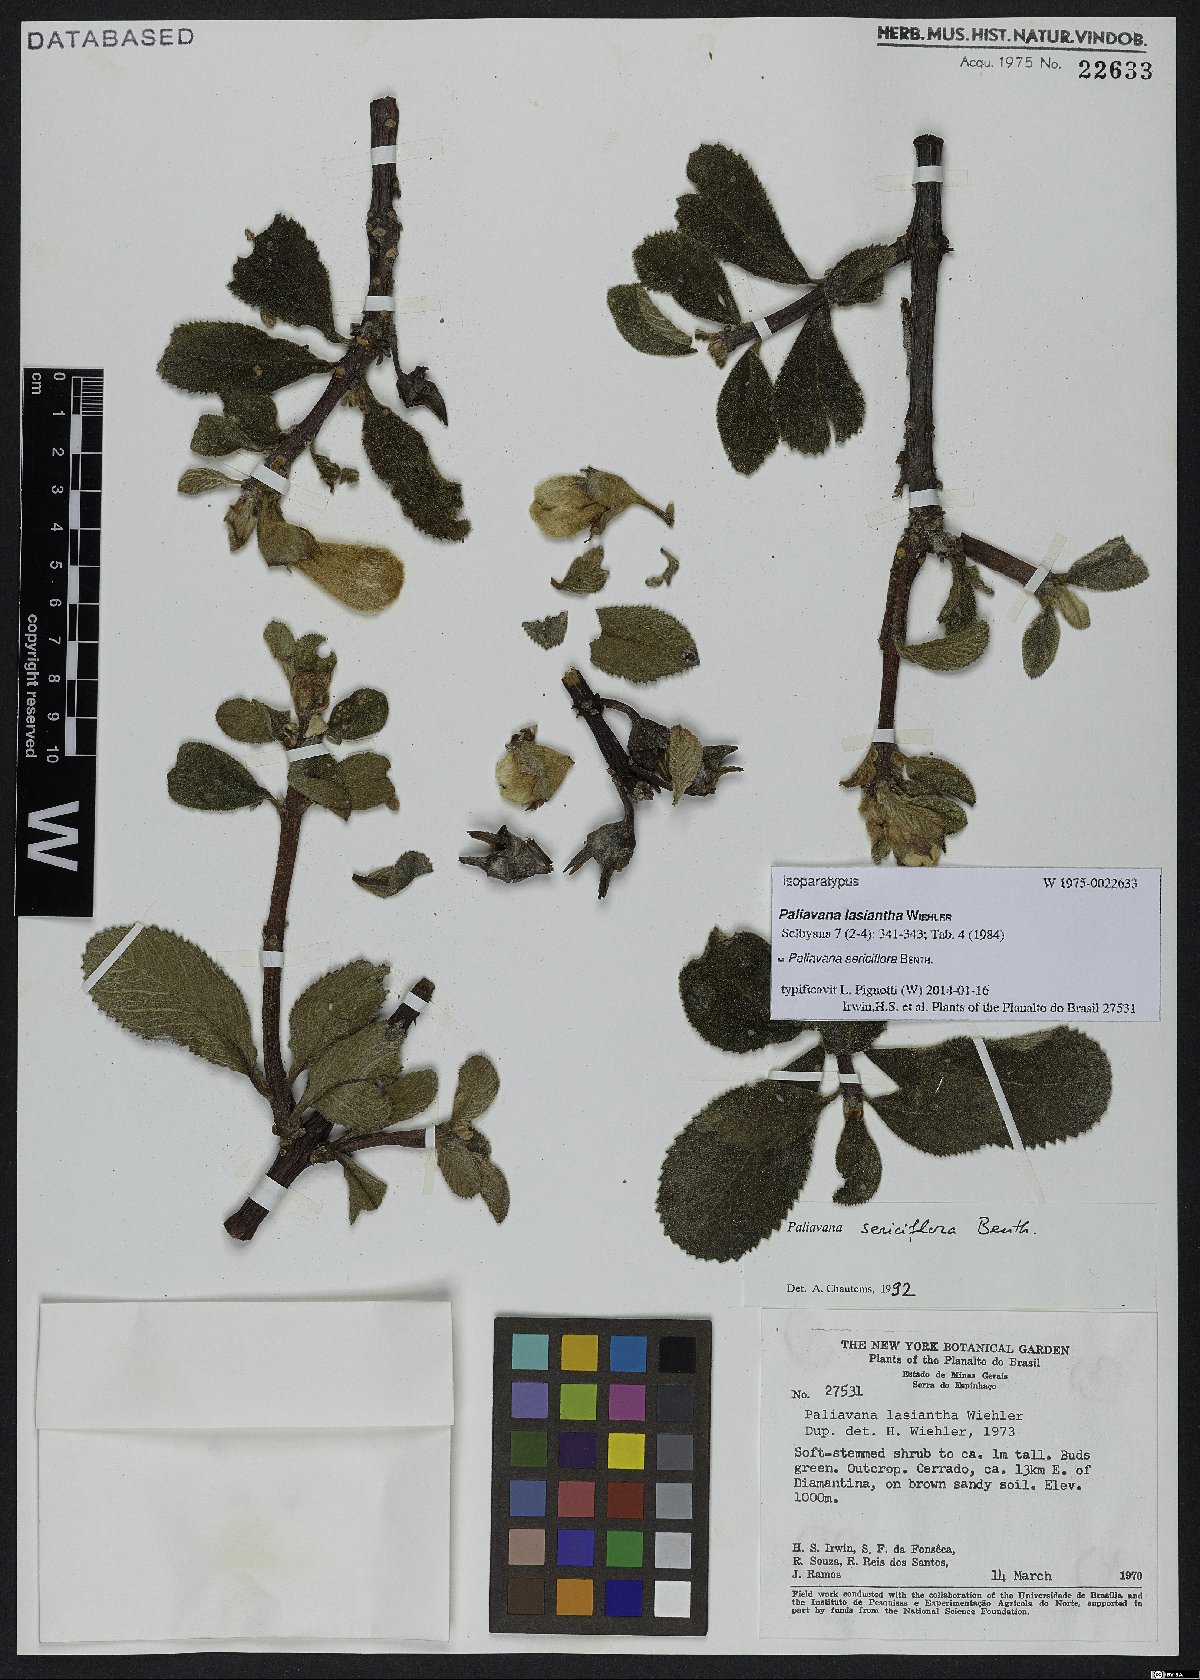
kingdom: Plantae
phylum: Tracheophyta
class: Magnoliopsida
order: Lamiales
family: Gesneriaceae
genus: Paliavana
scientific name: Paliavana sericiflora
